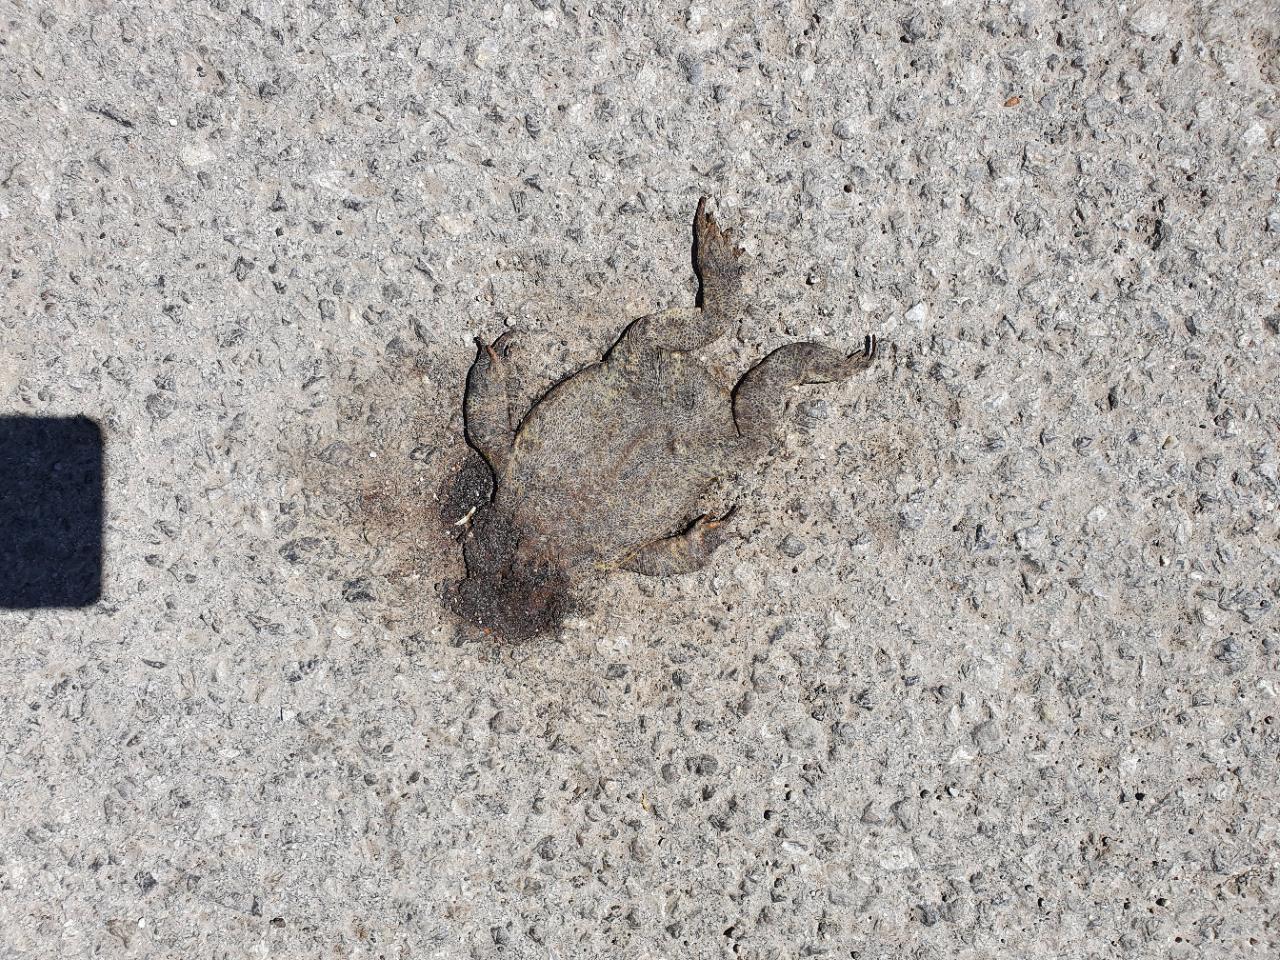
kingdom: Animalia
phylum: Chordata
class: Amphibia
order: Anura
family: Bufonidae
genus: Bufo
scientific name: Bufo bufo
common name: Common toad
